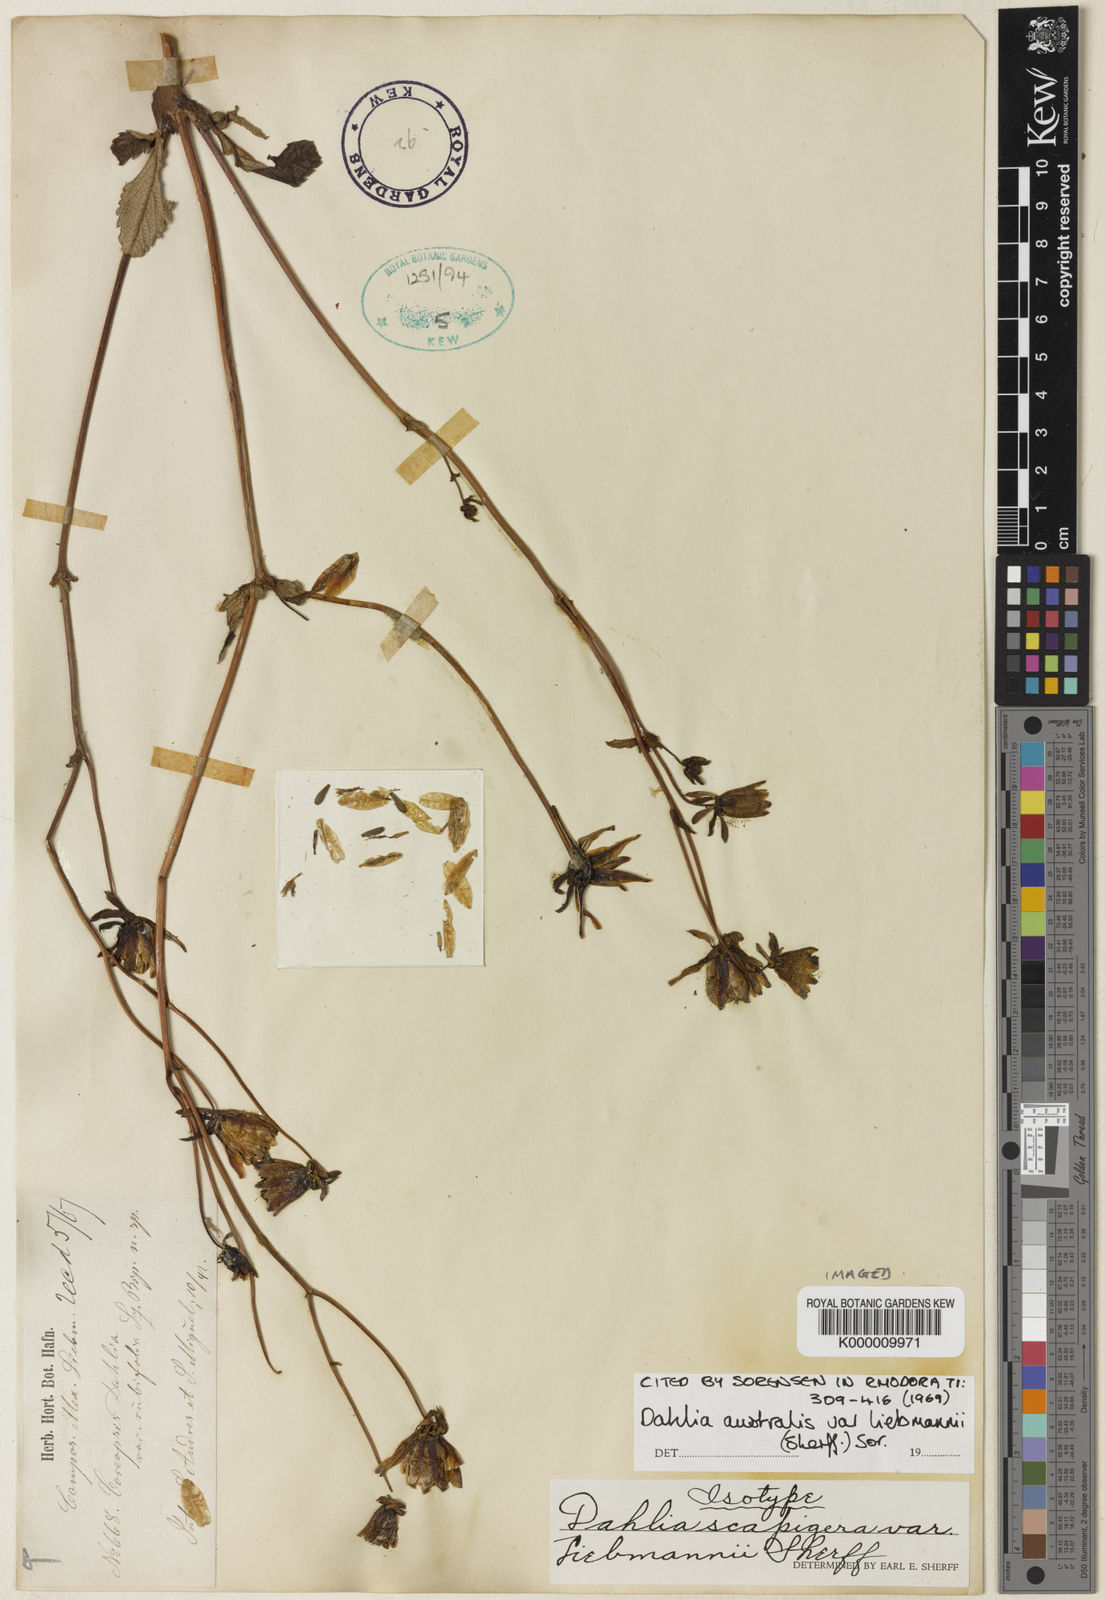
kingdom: Plantae
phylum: Tracheophyta
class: Magnoliopsida
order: Asterales
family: Asteraceae
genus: Dahlia
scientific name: Dahlia
